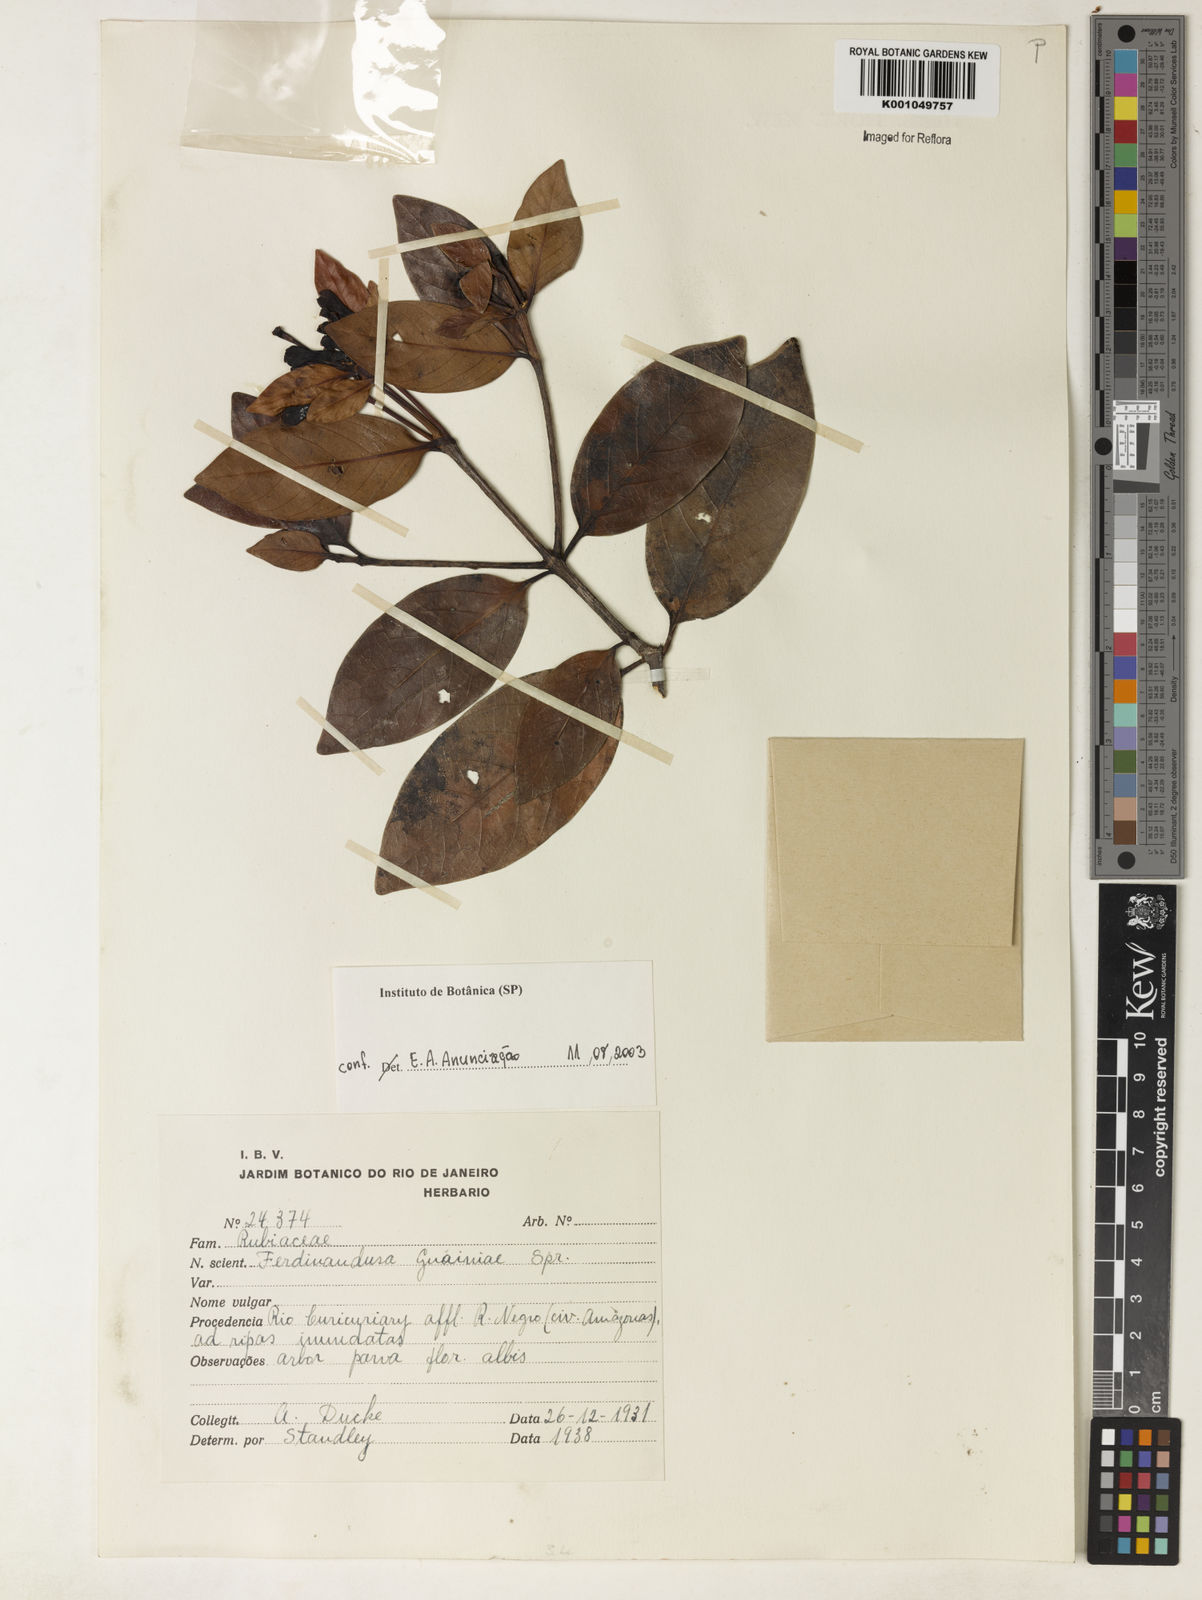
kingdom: Plantae
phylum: Tracheophyta
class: Magnoliopsida
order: Gentianales
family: Rubiaceae
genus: Ferdinandusa
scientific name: Ferdinandusa guainiae
